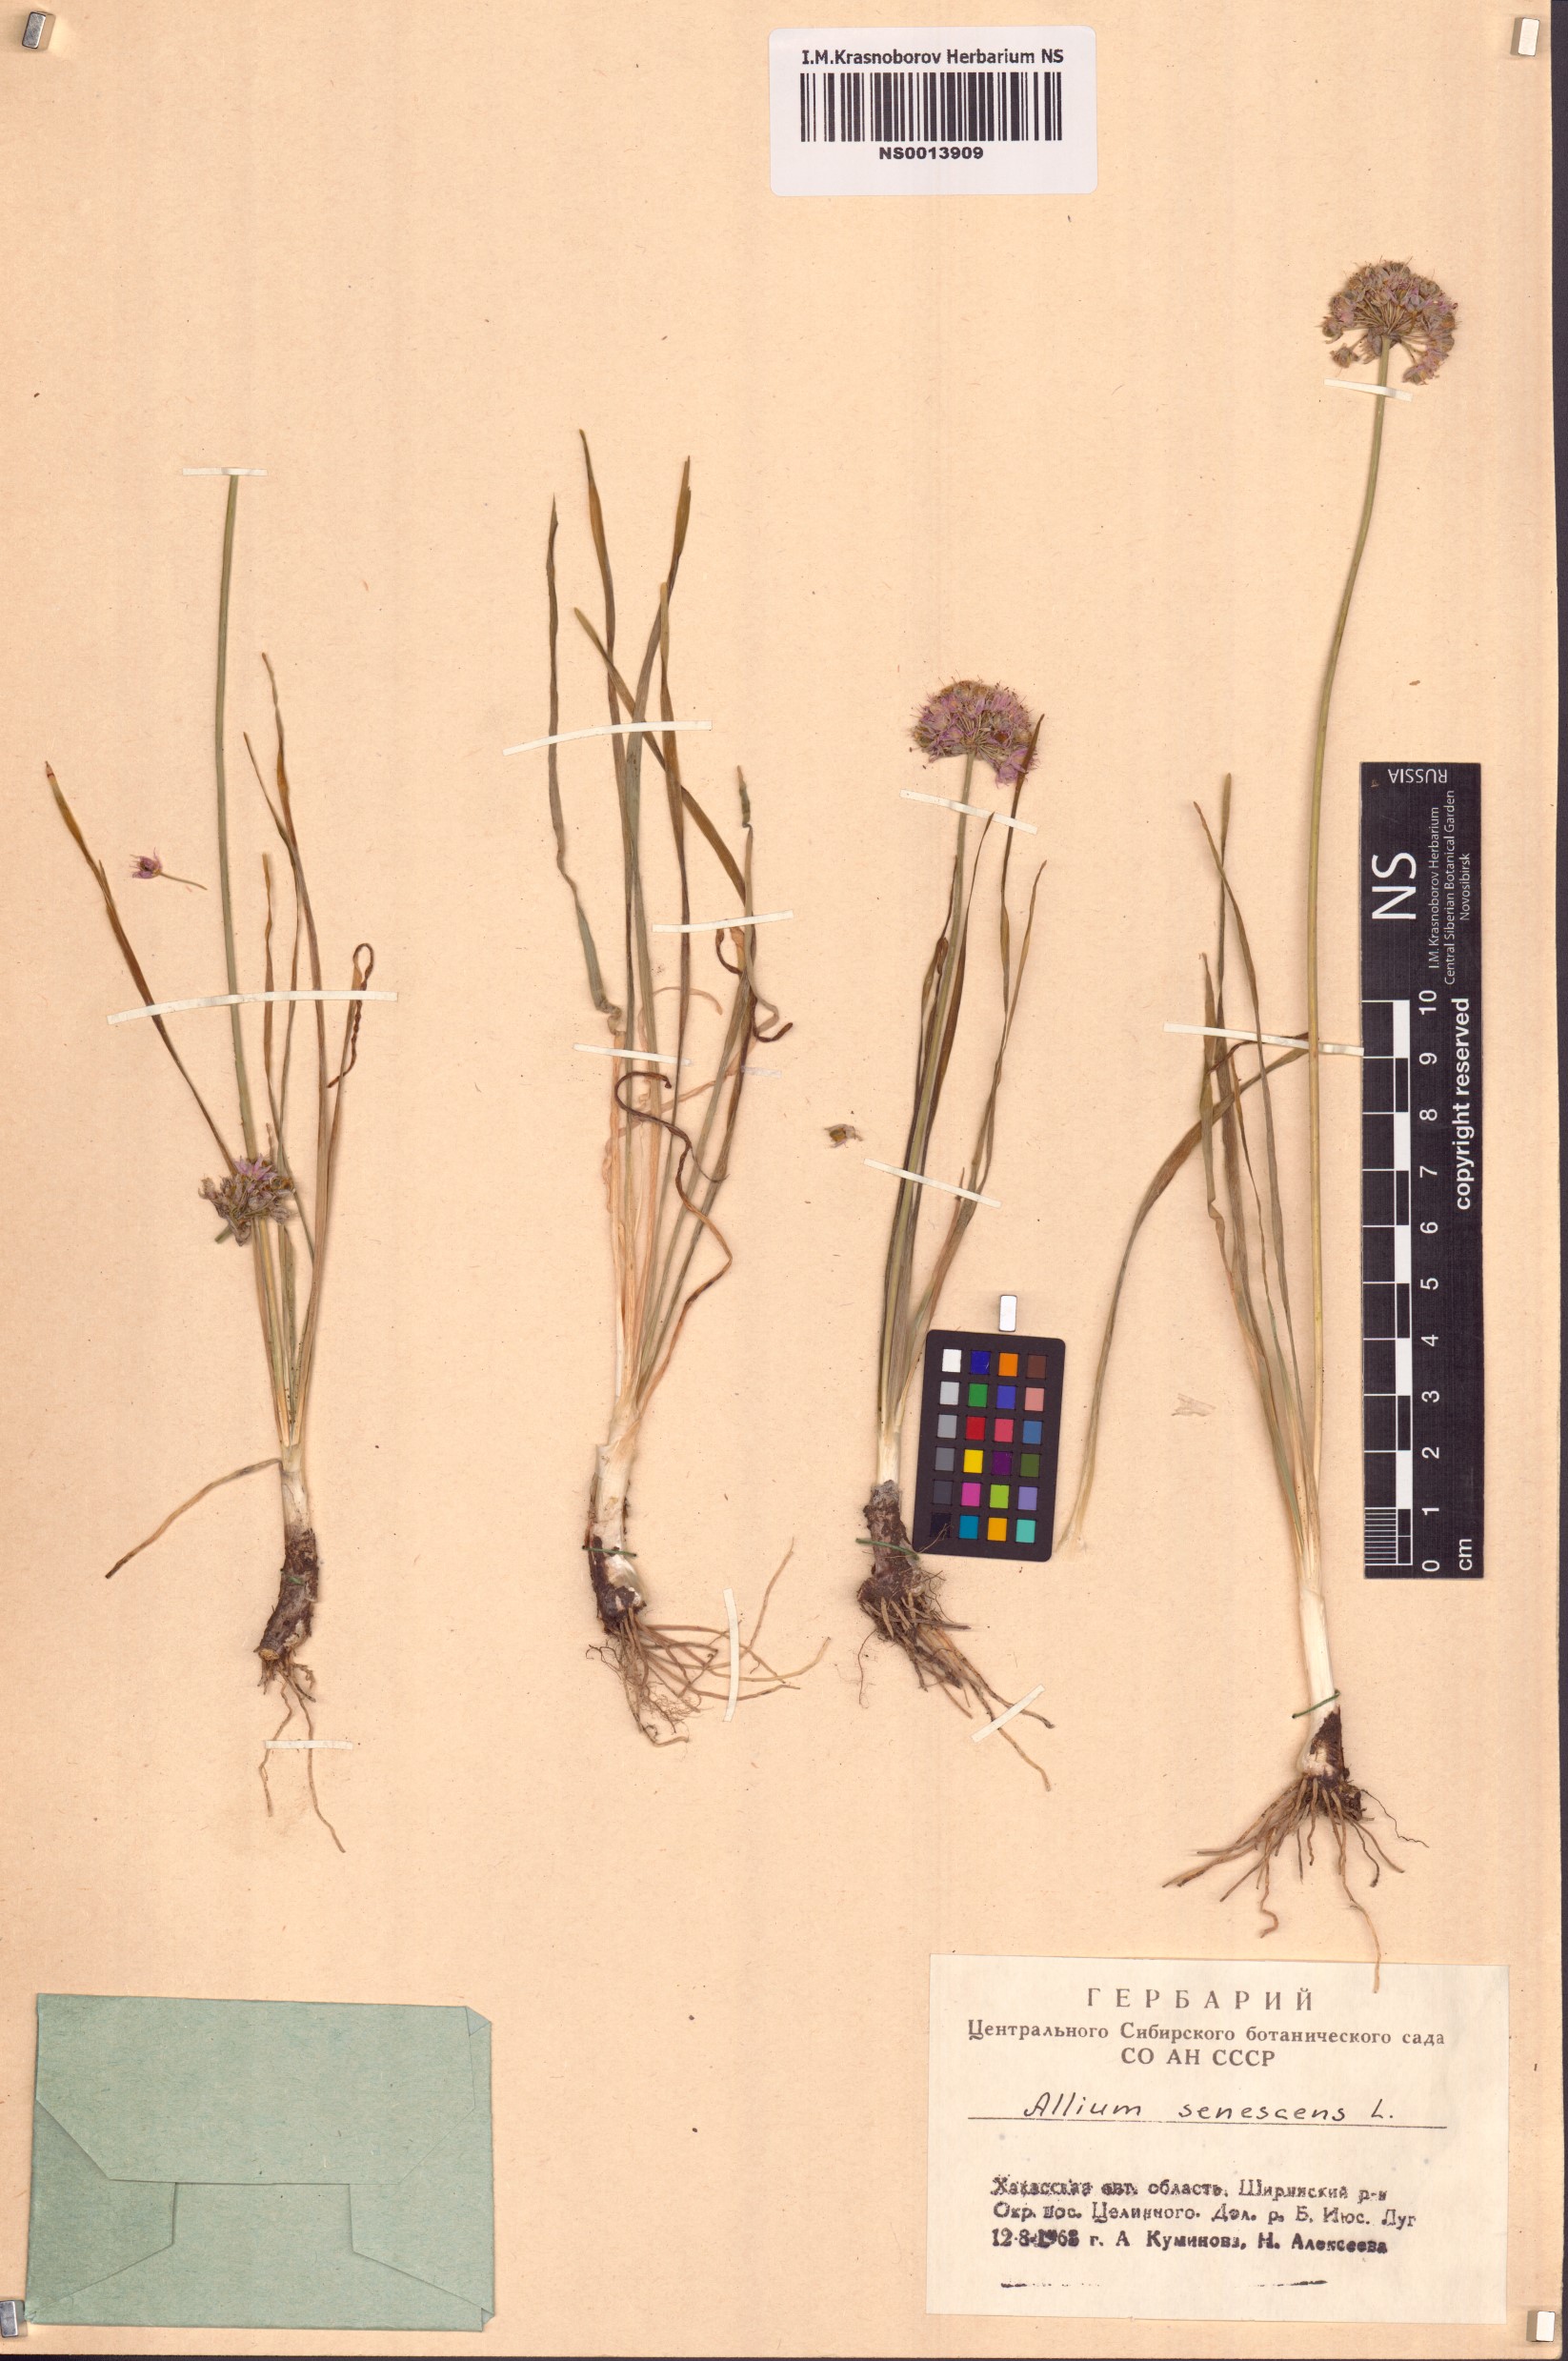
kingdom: Plantae
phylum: Tracheophyta
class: Liliopsida
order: Asparagales
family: Amaryllidaceae
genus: Allium
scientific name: Allium senescens
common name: German garlic
